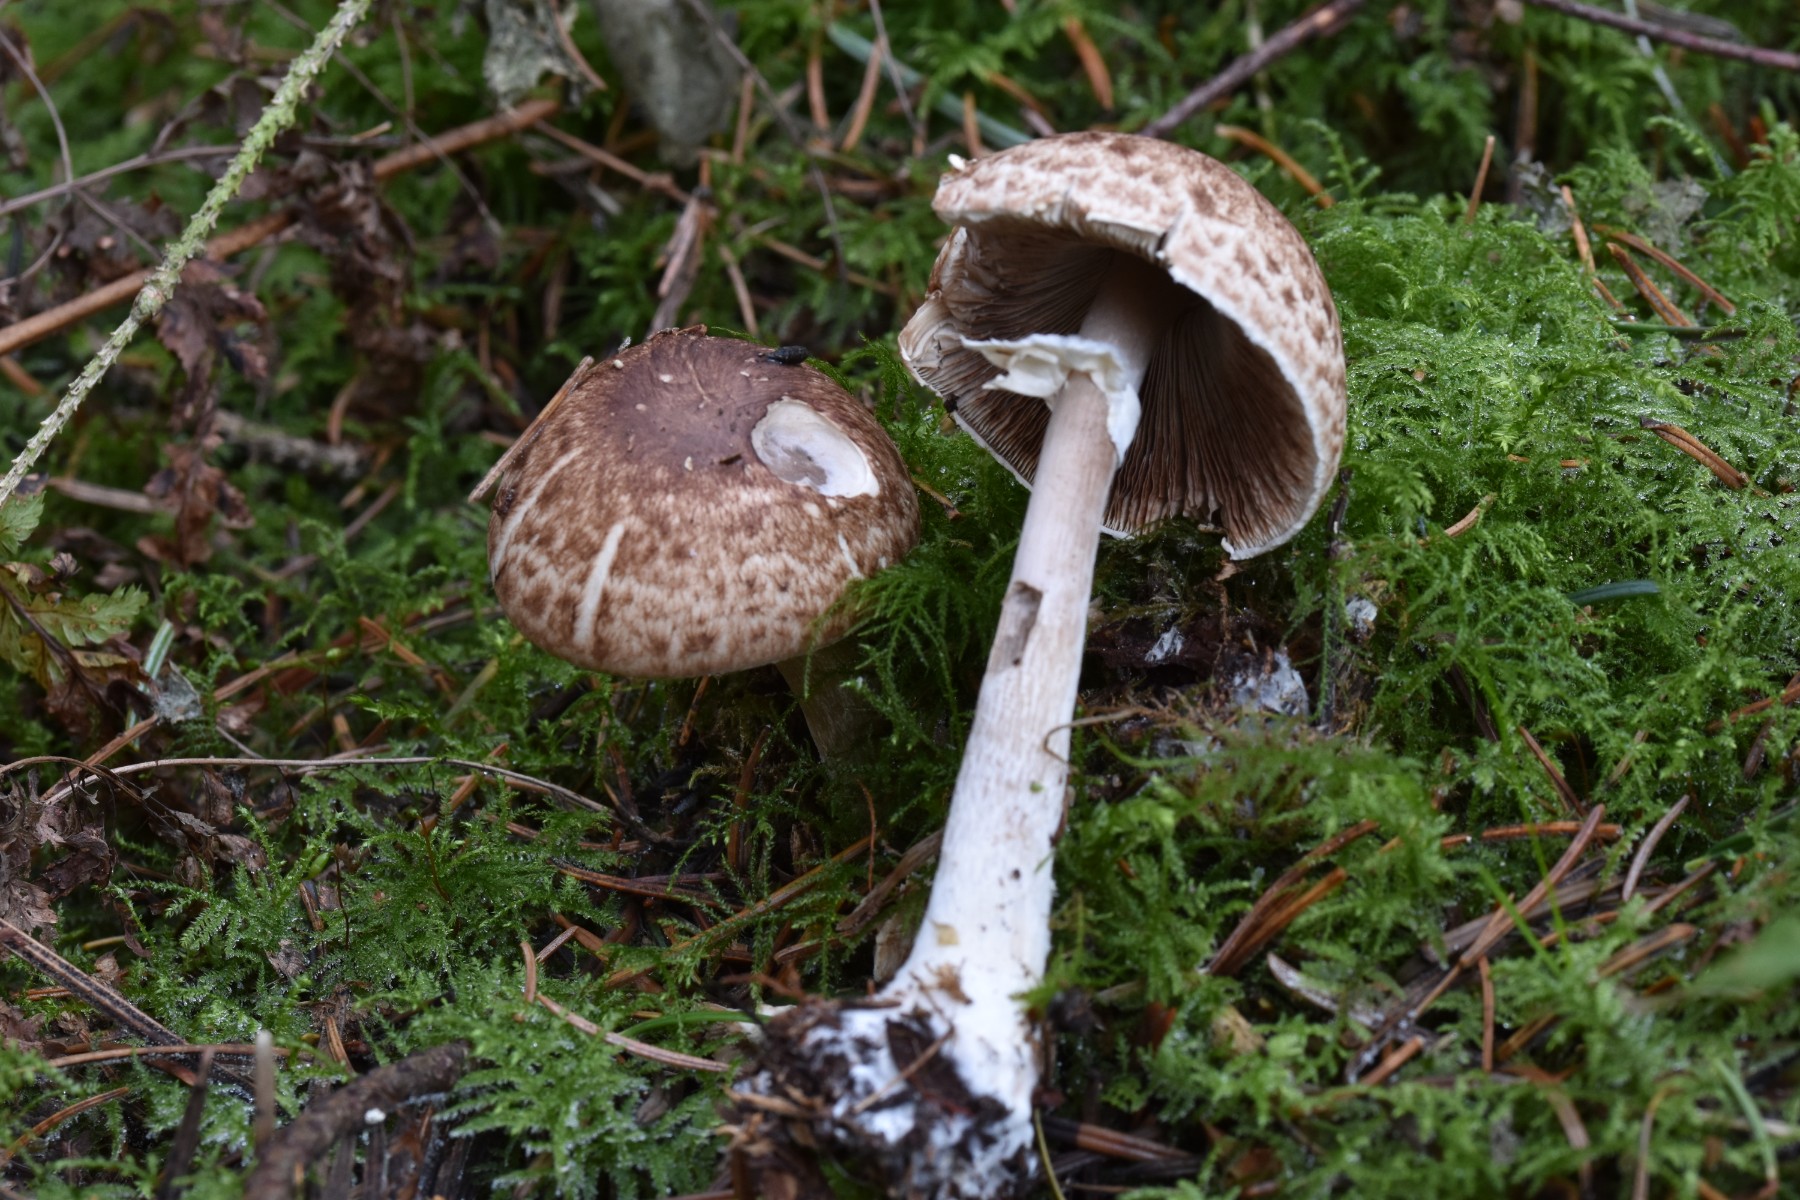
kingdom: Fungi
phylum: Basidiomycota
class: Agaricomycetes
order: Agaricales
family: Agaricaceae
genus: Agaricus
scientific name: Agaricus impudicus
